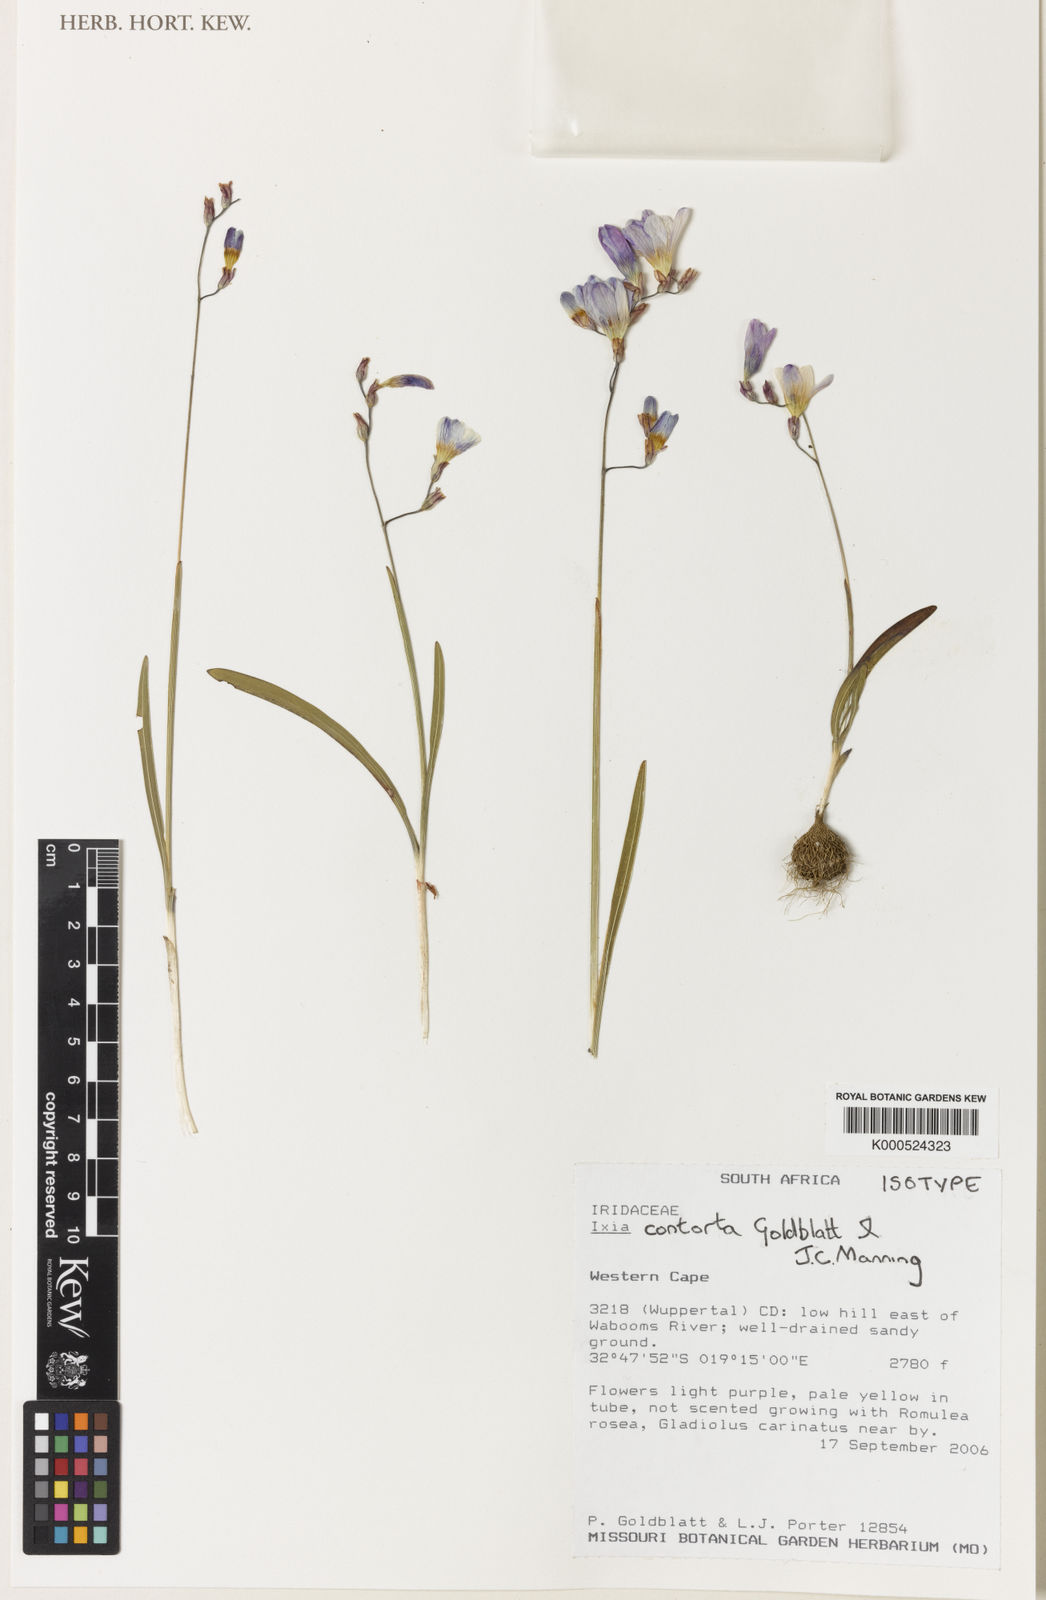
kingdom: Plantae
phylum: Tracheophyta
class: Liliopsida
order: Asparagales
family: Iridaceae
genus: Ixia
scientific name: Ixia contorta
